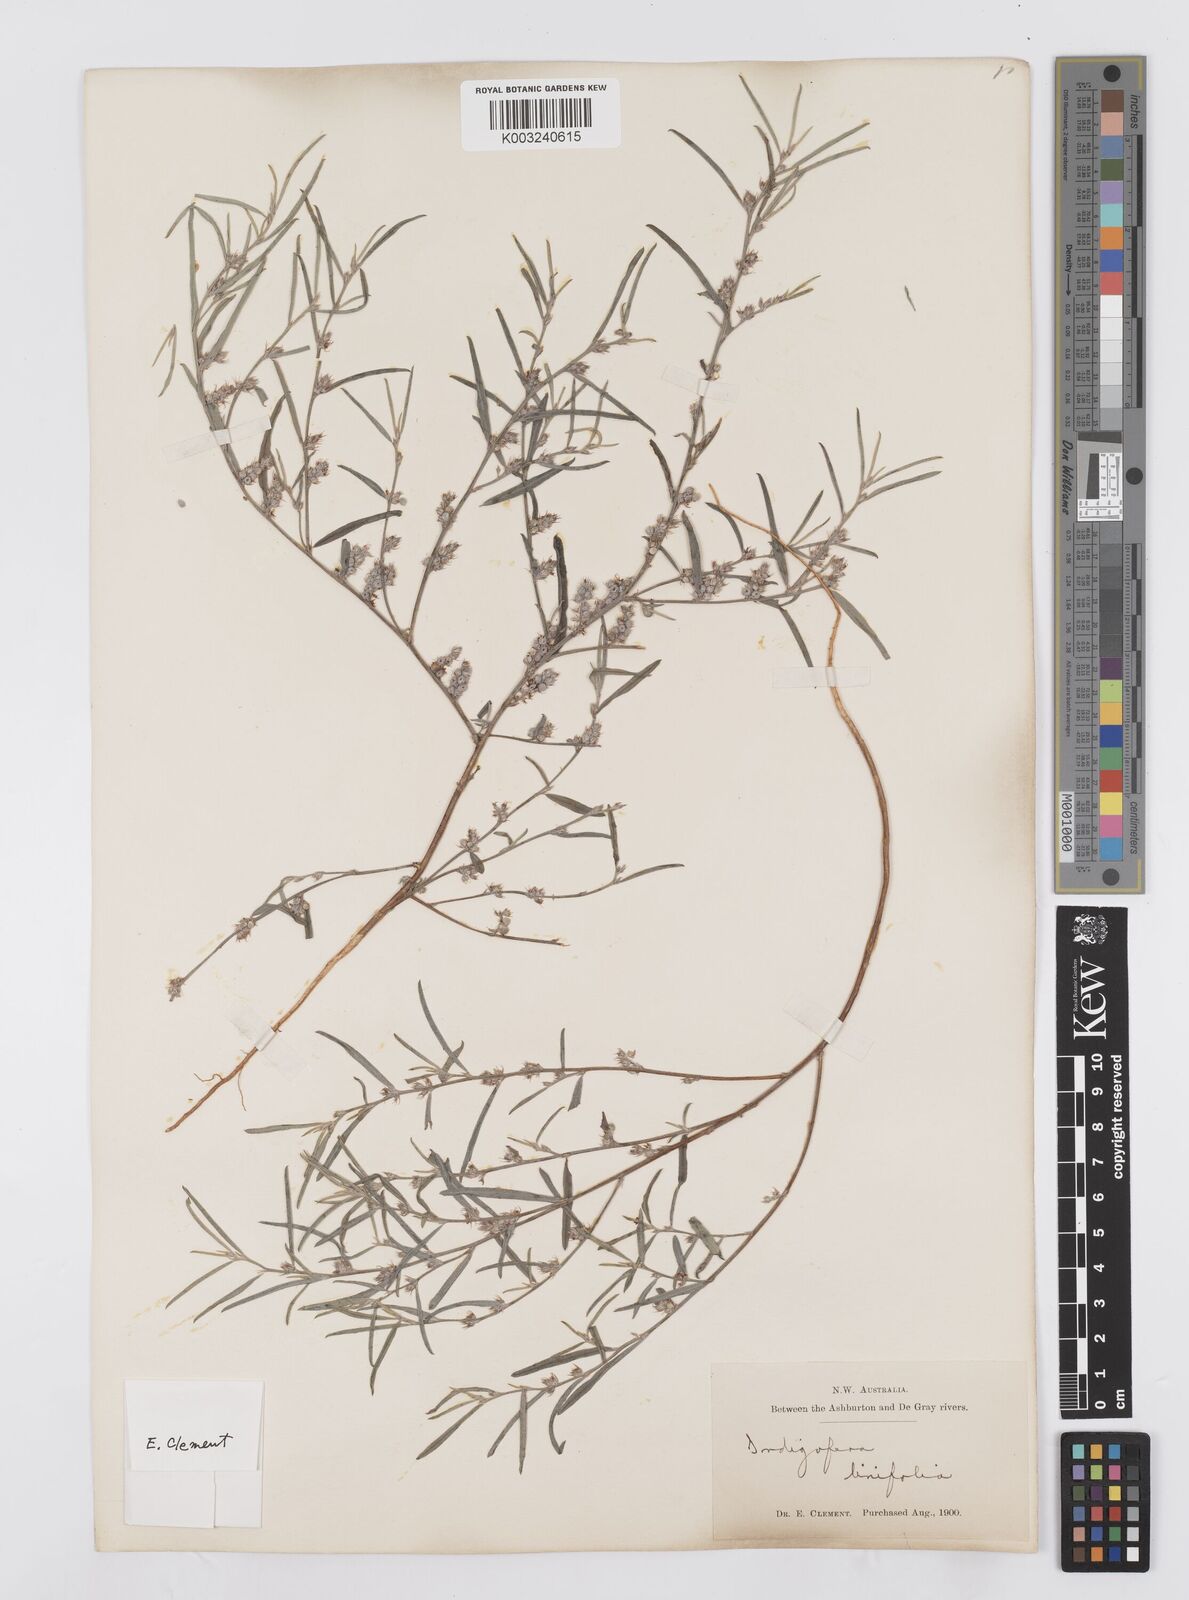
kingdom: Plantae
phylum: Tracheophyta
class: Magnoliopsida
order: Fabales
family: Fabaceae
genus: Indigofera
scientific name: Indigofera linifolia
